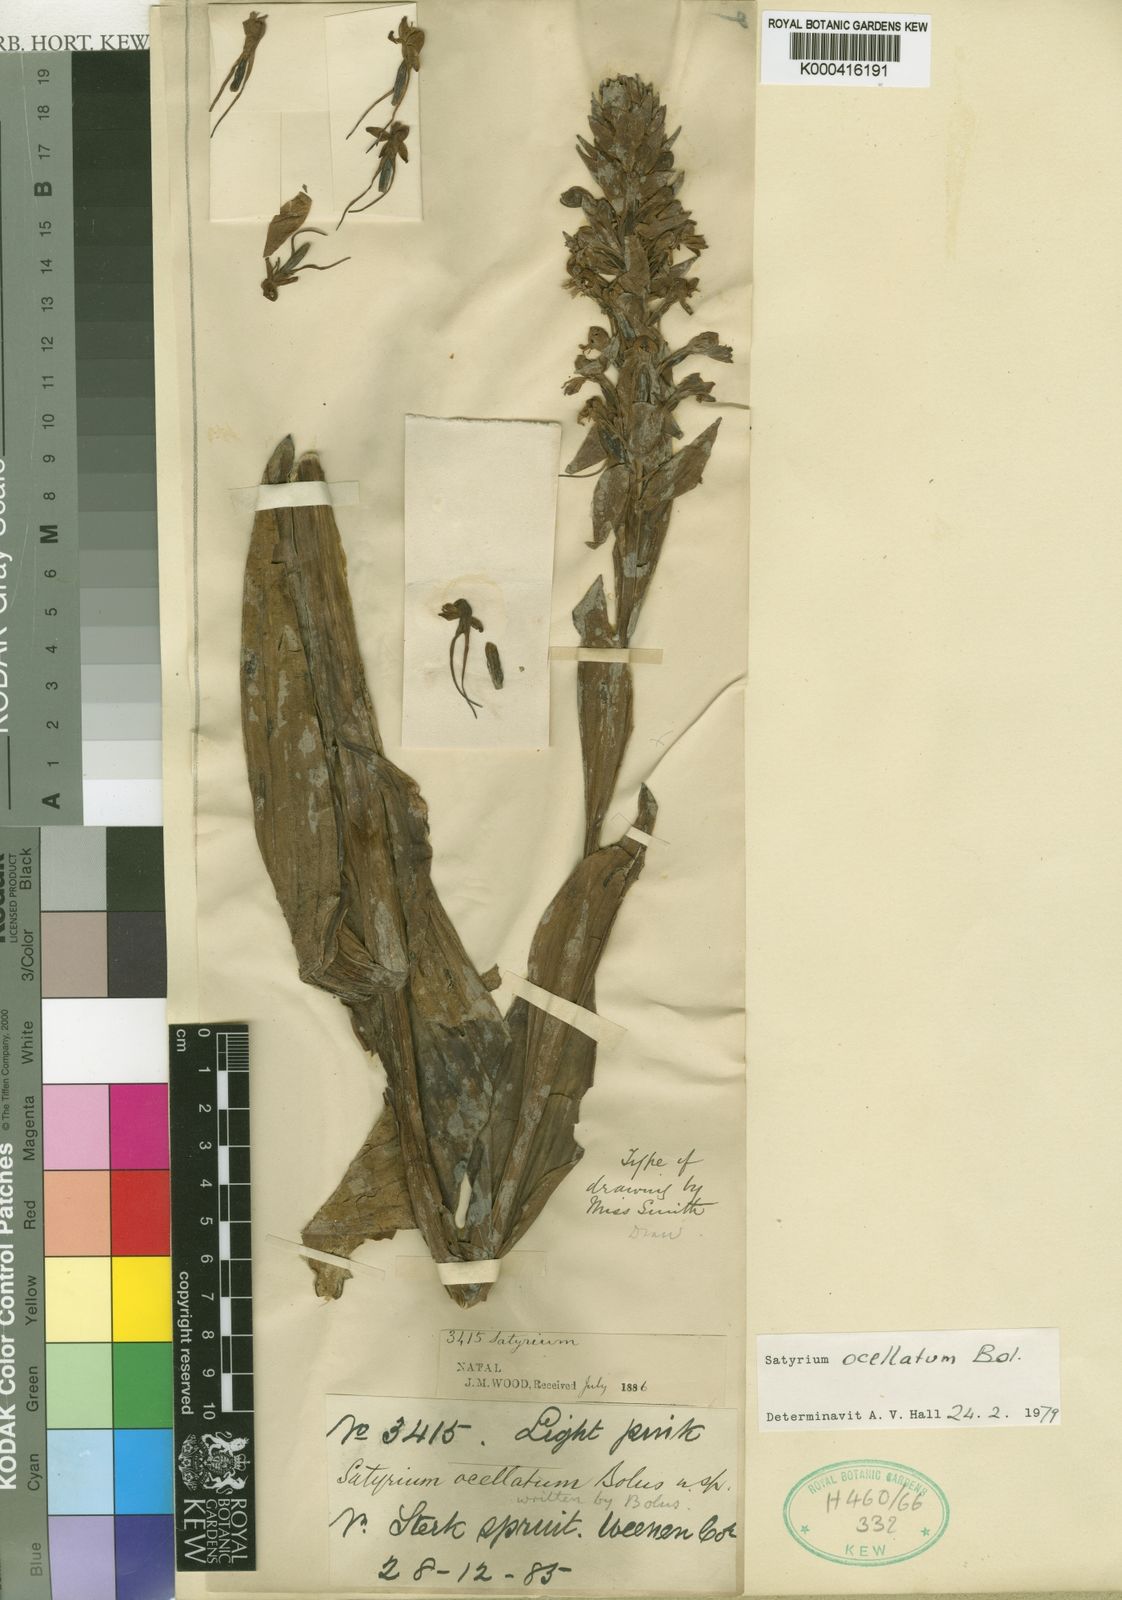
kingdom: Plantae
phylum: Tracheophyta
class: Liliopsida
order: Asparagales
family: Orchidaceae
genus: Satyrium
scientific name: Satyrium hallackii
